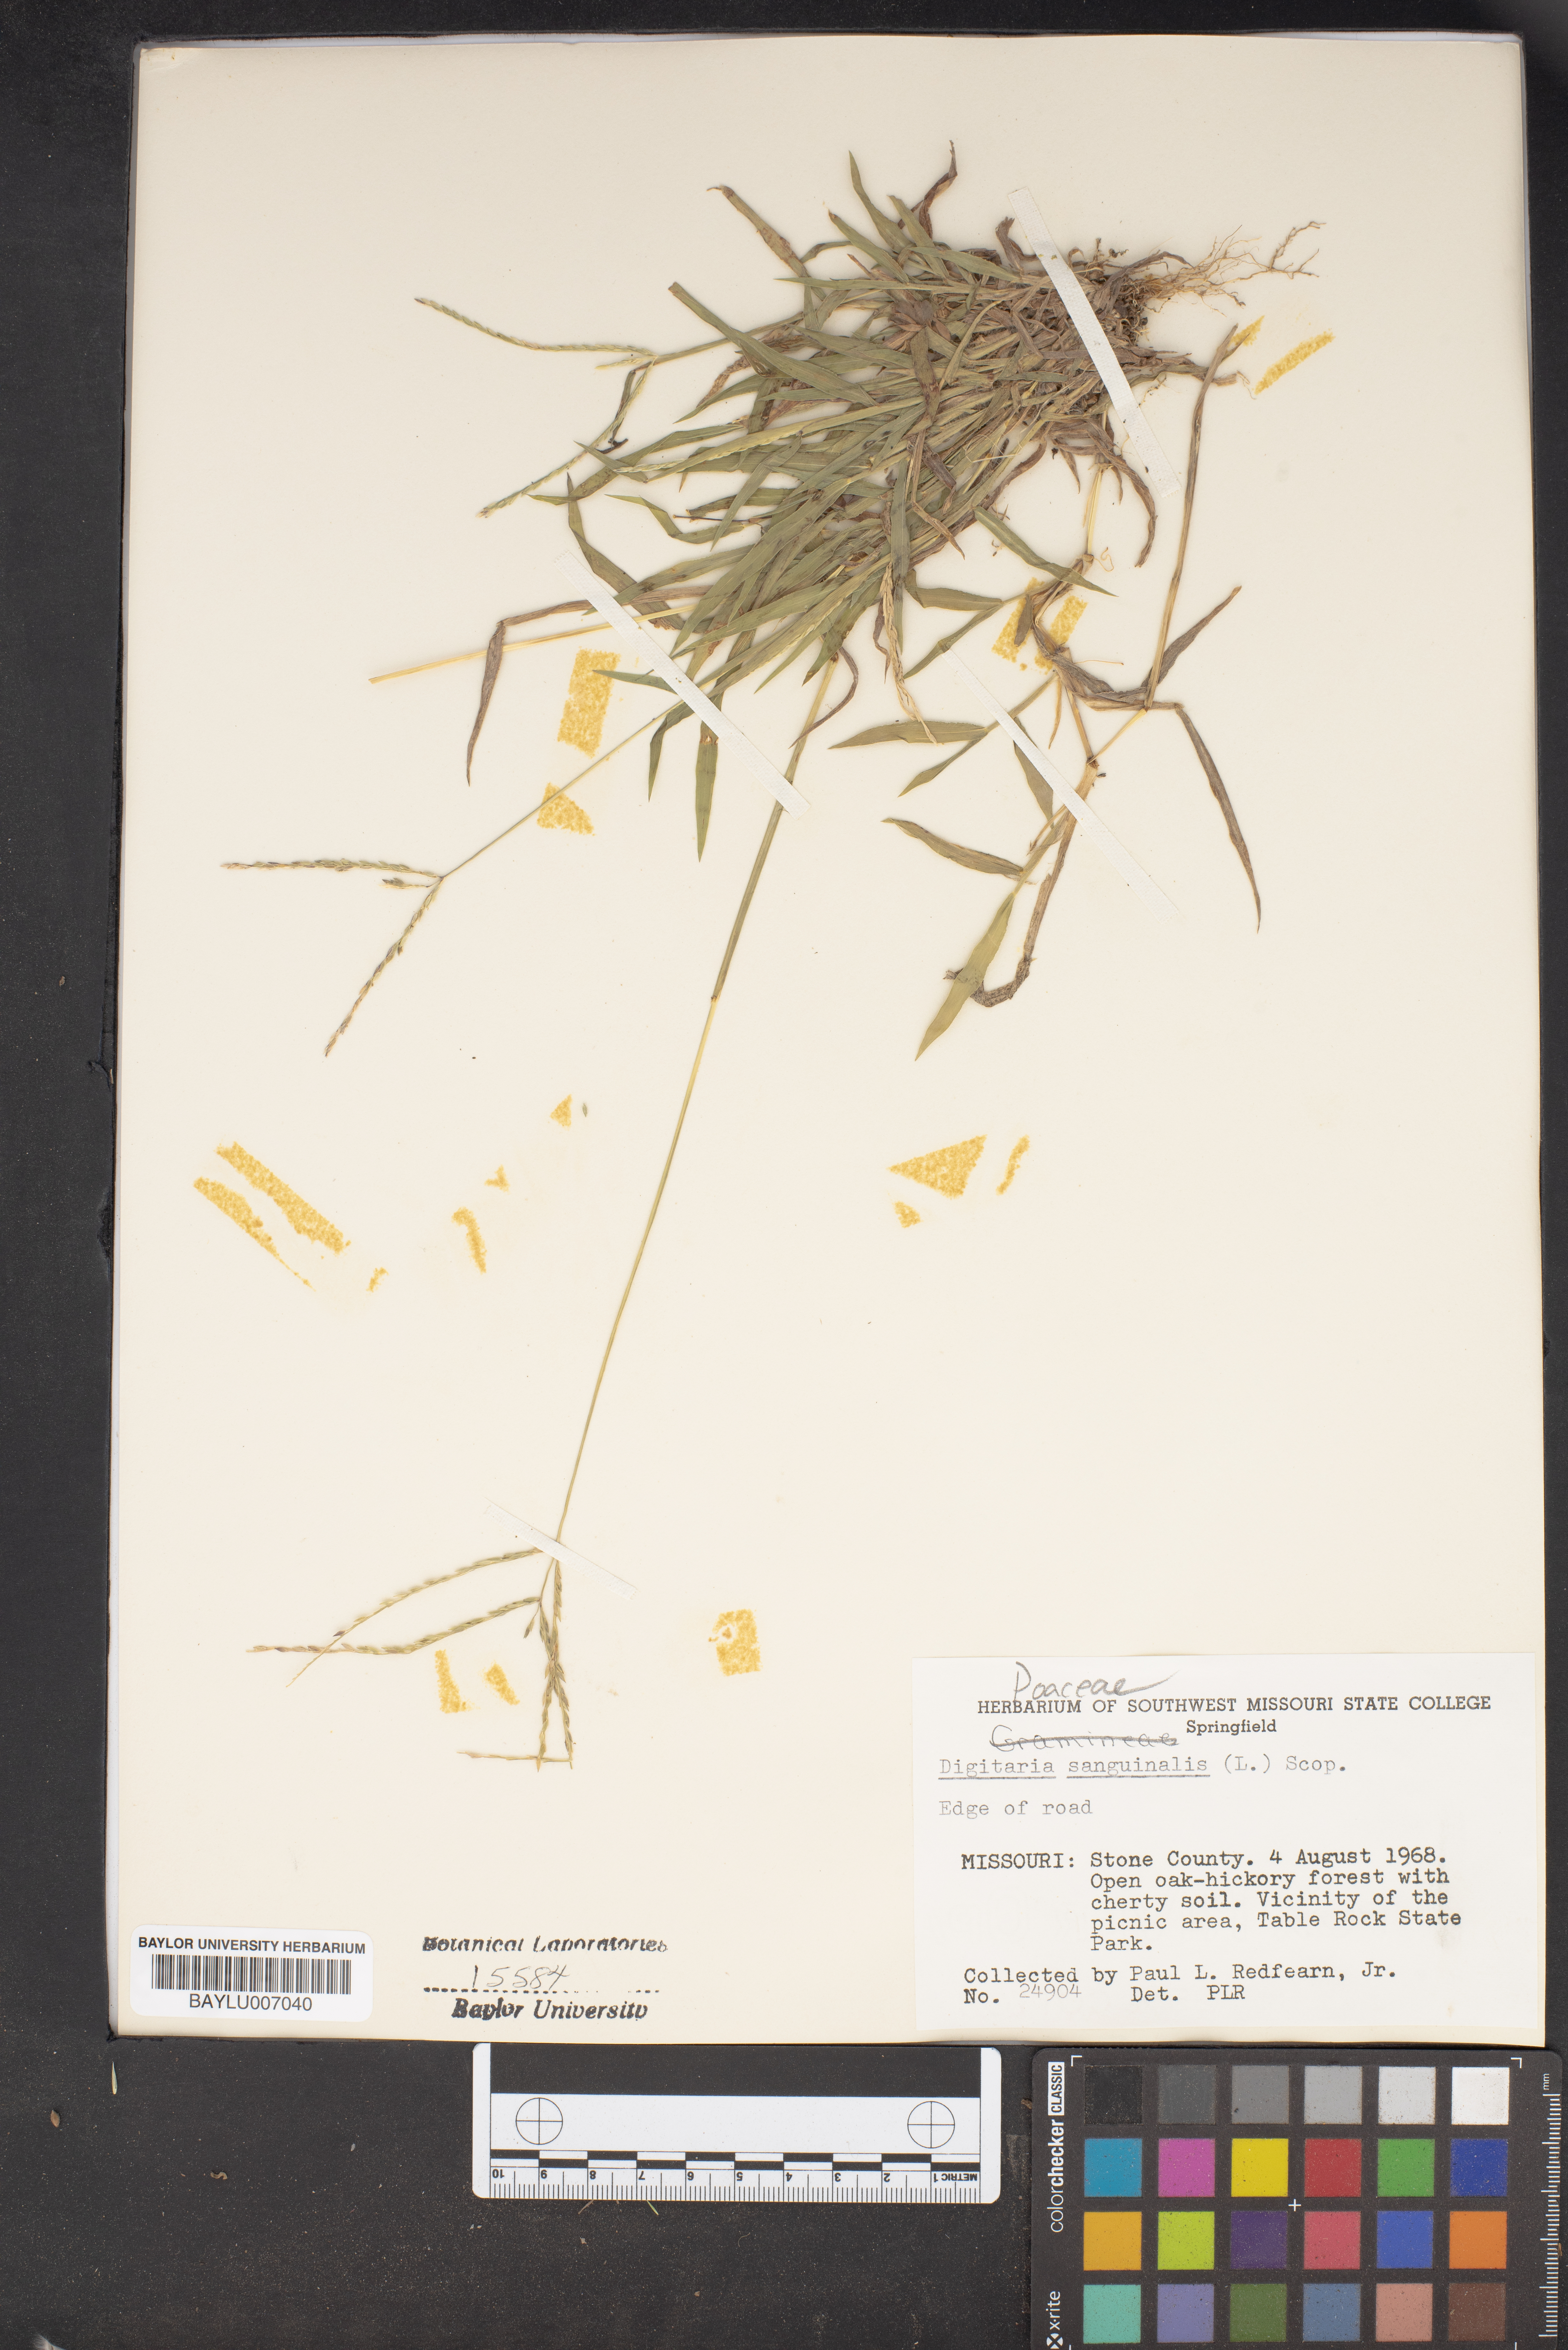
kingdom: Plantae
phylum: Tracheophyta
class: Liliopsida
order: Poales
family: Poaceae
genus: Digitaria
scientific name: Digitaria sanguinalis
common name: Hairy crabgrass
